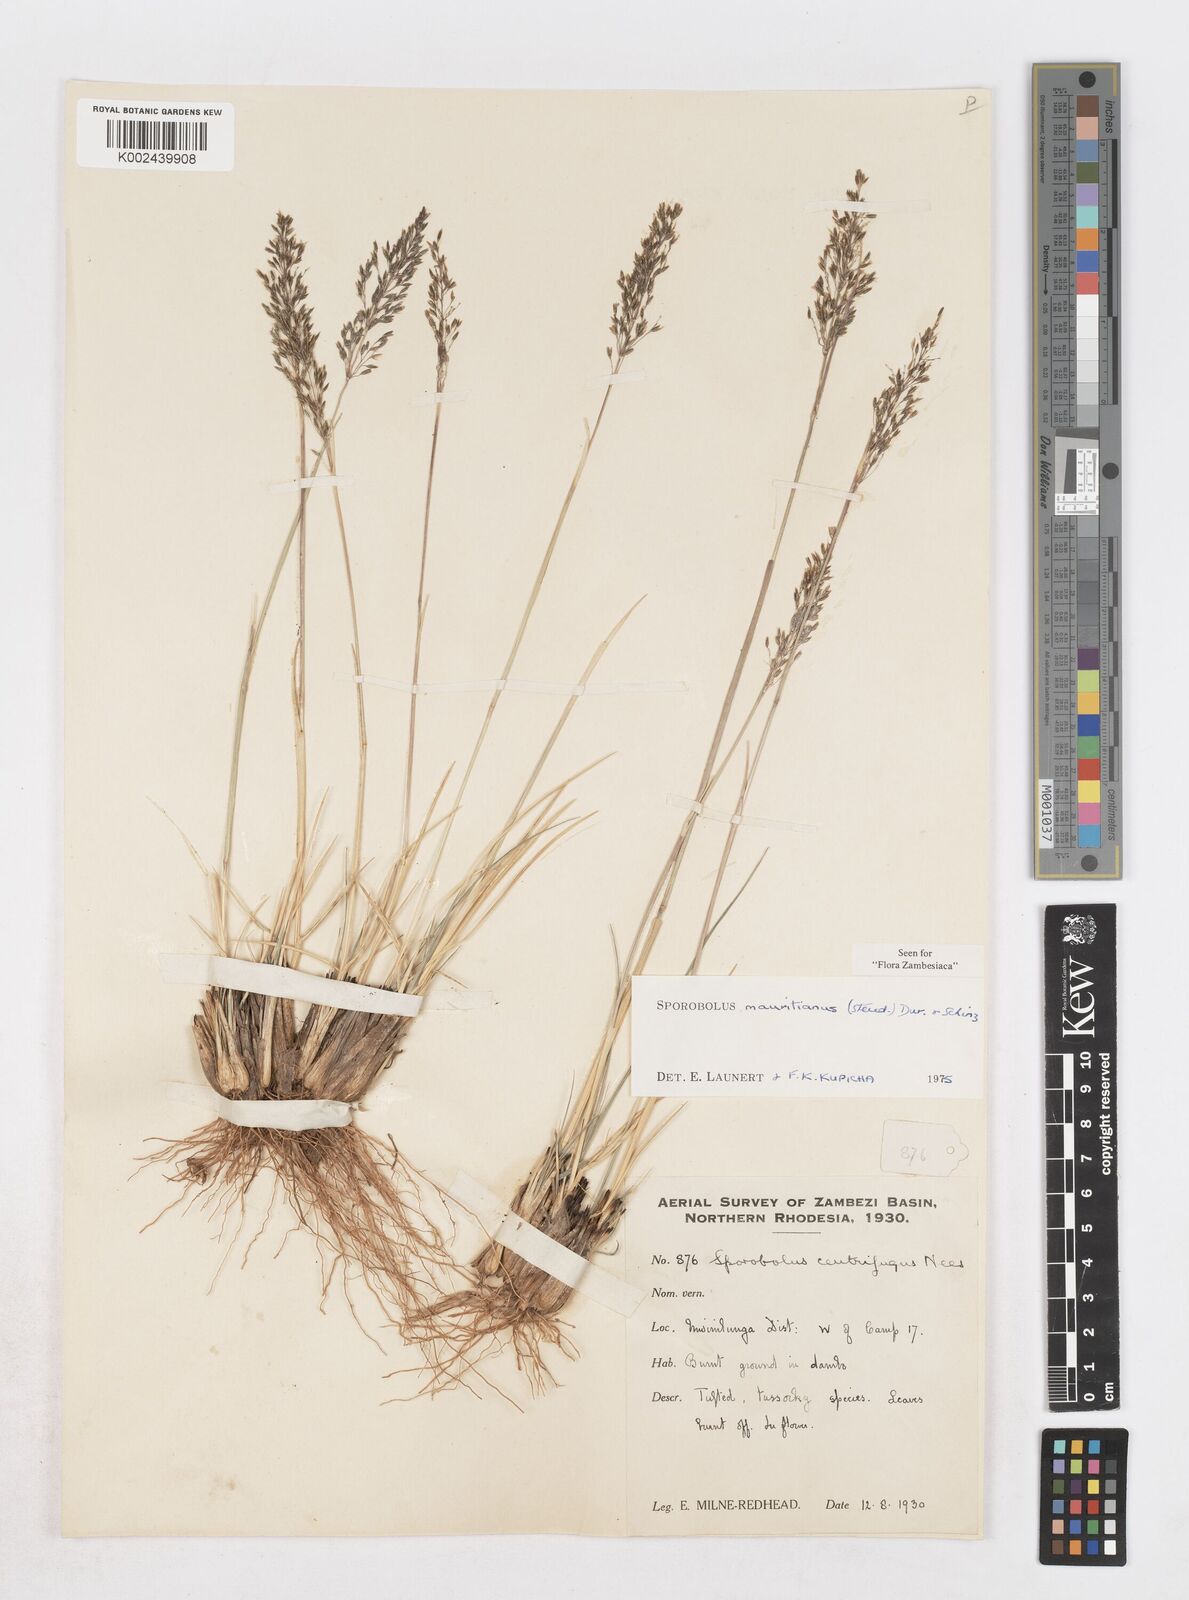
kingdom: Plantae
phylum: Tracheophyta
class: Liliopsida
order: Poales
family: Poaceae
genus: Sporobolus
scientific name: Sporobolus subulatus
